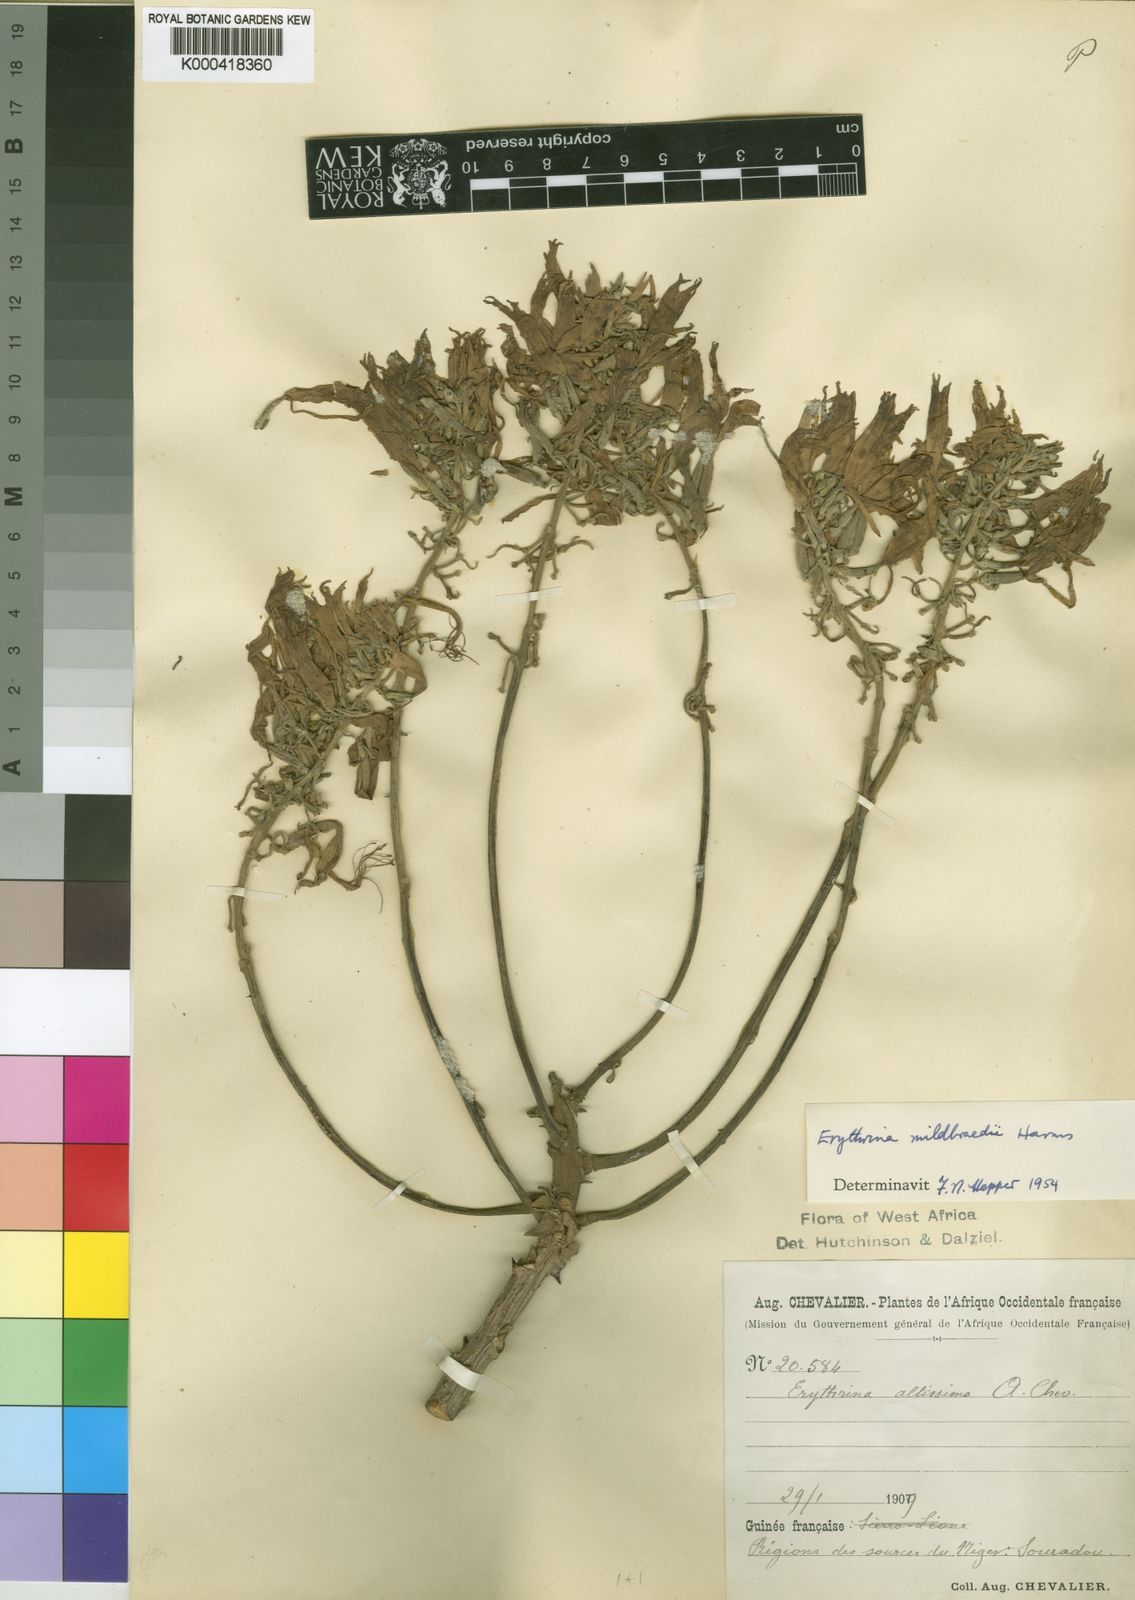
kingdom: Plantae
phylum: Tracheophyta
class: Magnoliopsida
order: Fabales
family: Fabaceae
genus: Erythrina
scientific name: Erythrina mildbraedii
